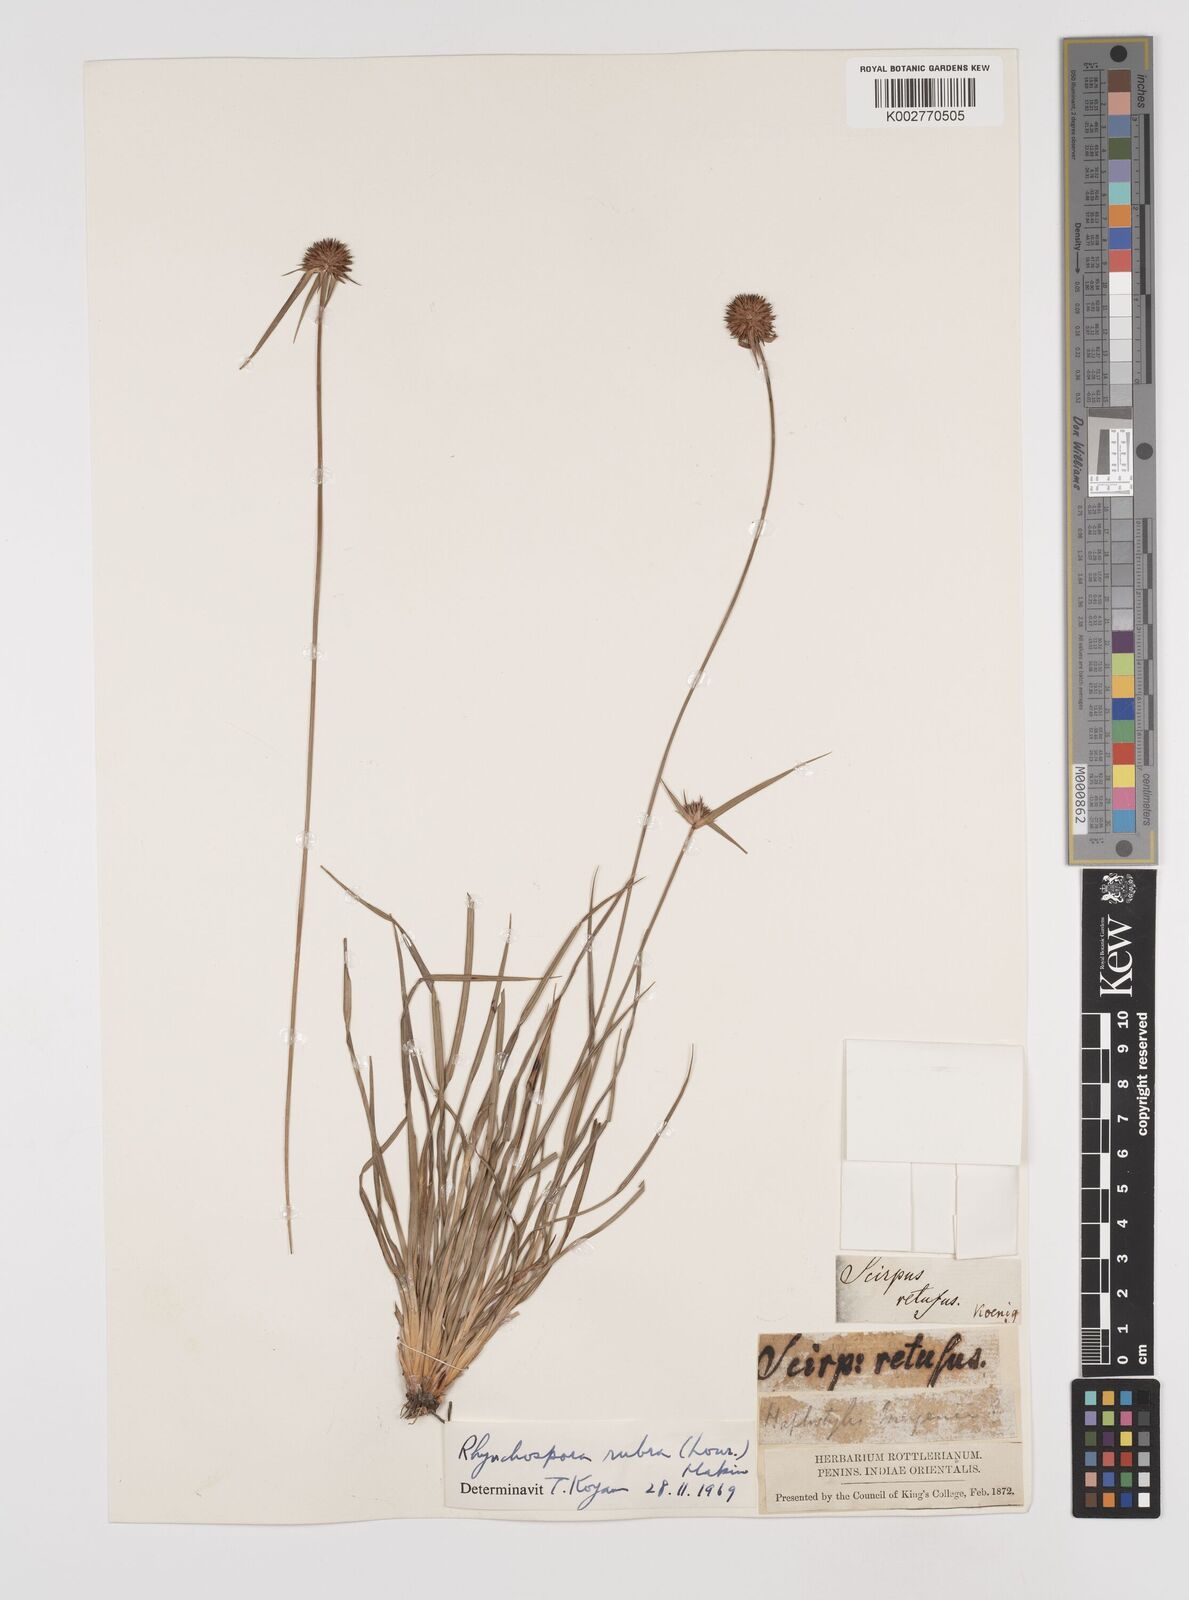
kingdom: Plantae
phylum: Tracheophyta
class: Liliopsida
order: Poales
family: Cyperaceae
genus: Rhynchospora
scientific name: Rhynchospora rubra
